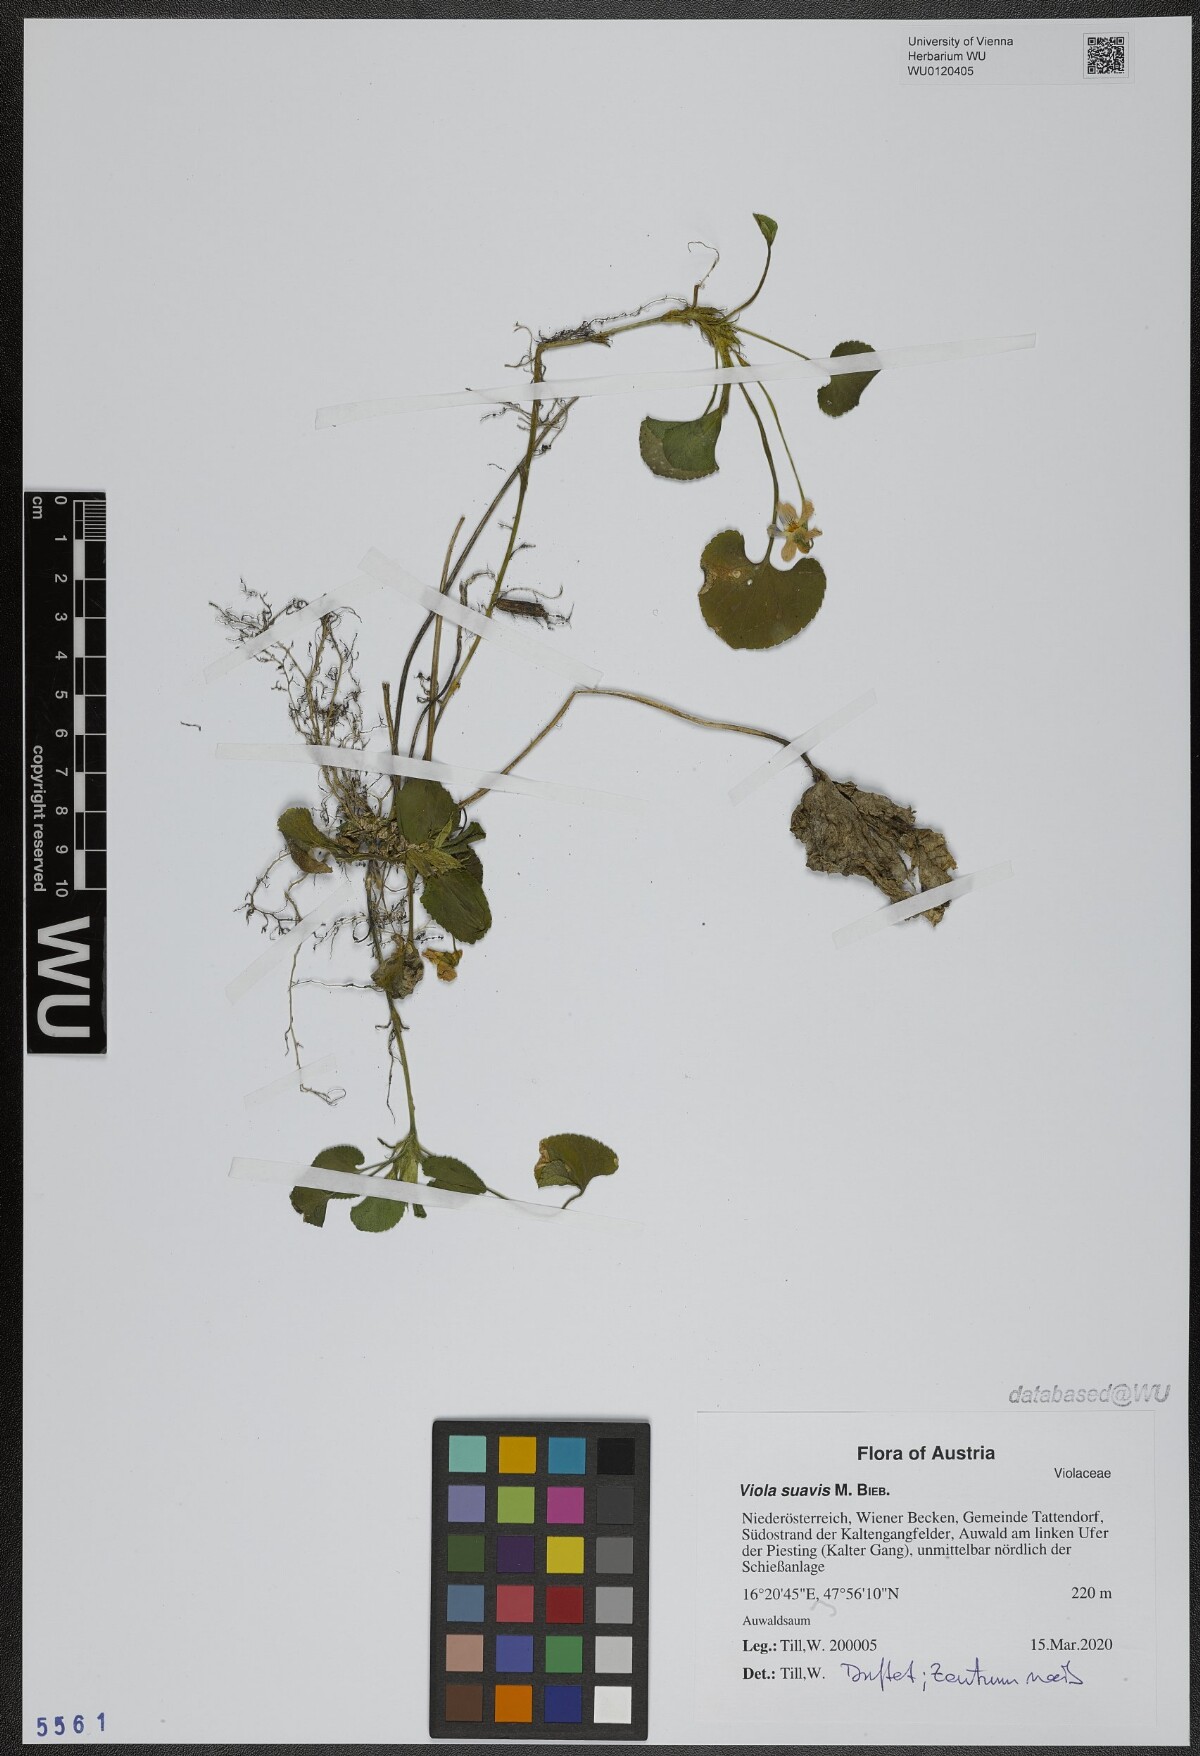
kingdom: Plantae
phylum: Tracheophyta
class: Magnoliopsida
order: Malpighiales
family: Violaceae
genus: Viola
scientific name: Viola suavis
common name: Russian violet
